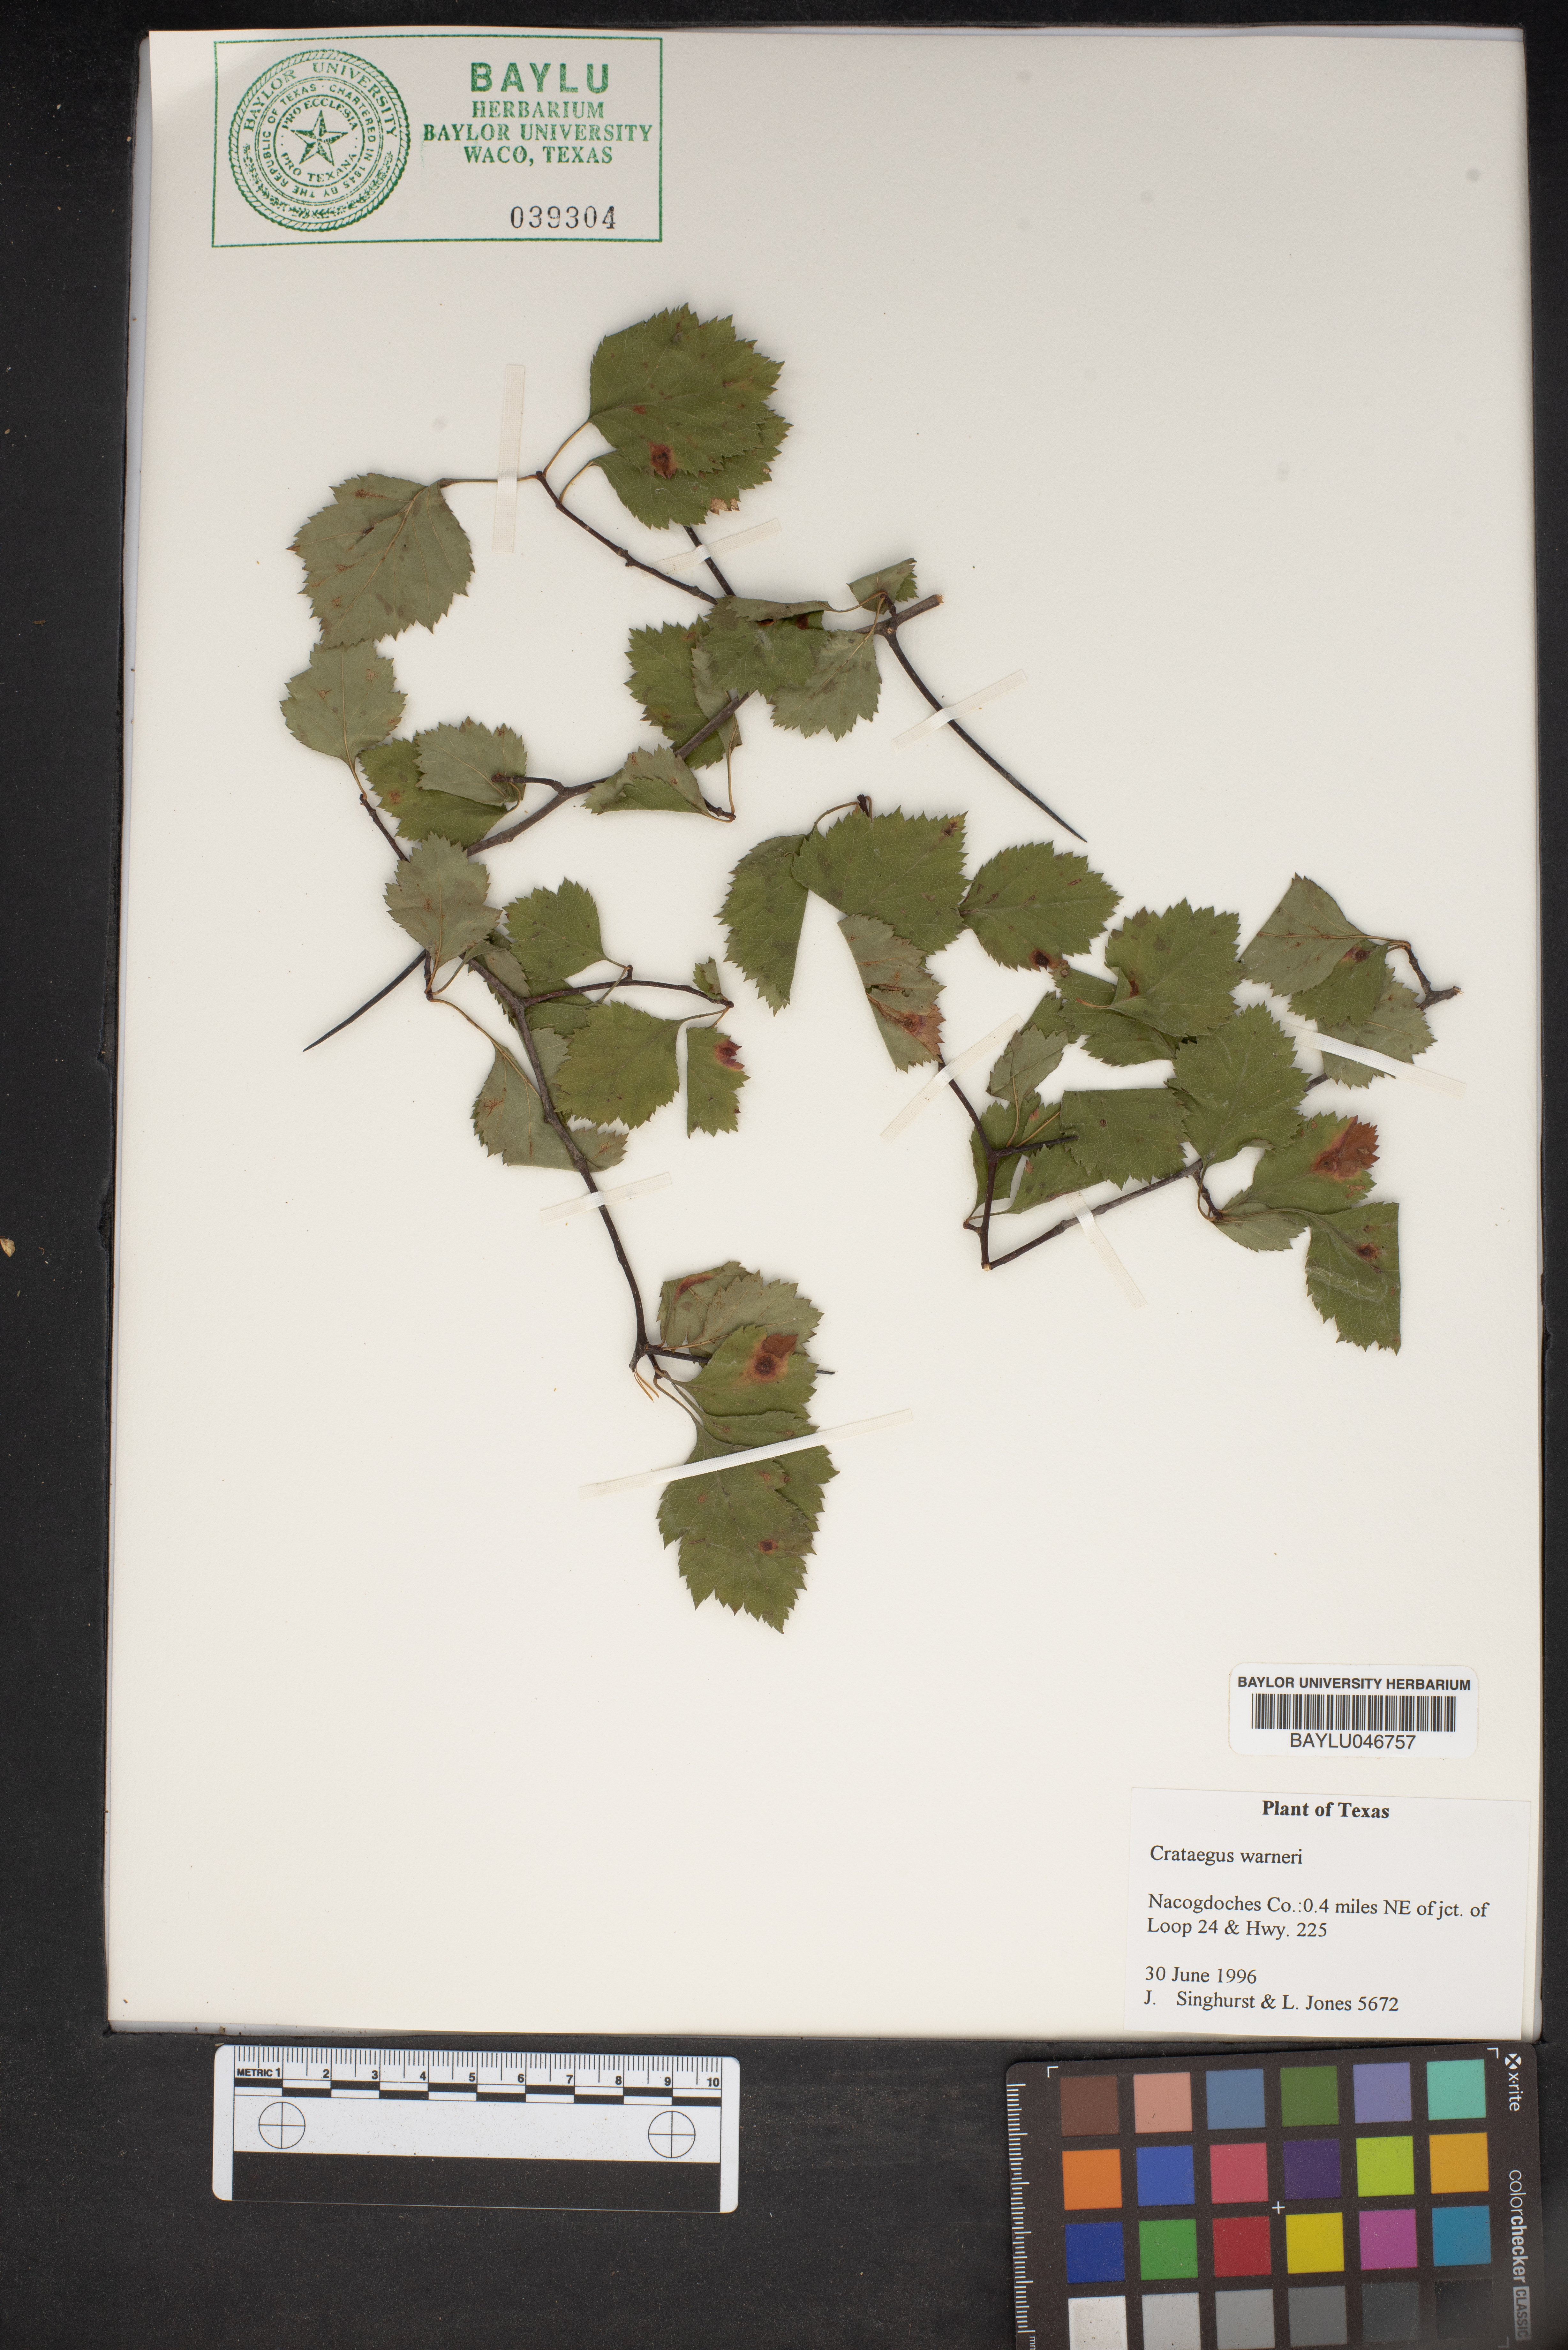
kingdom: Plantae
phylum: Tracheophyta
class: Magnoliopsida
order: Rosales
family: Rosaceae
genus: Crataegus
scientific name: Crataegus warneri
